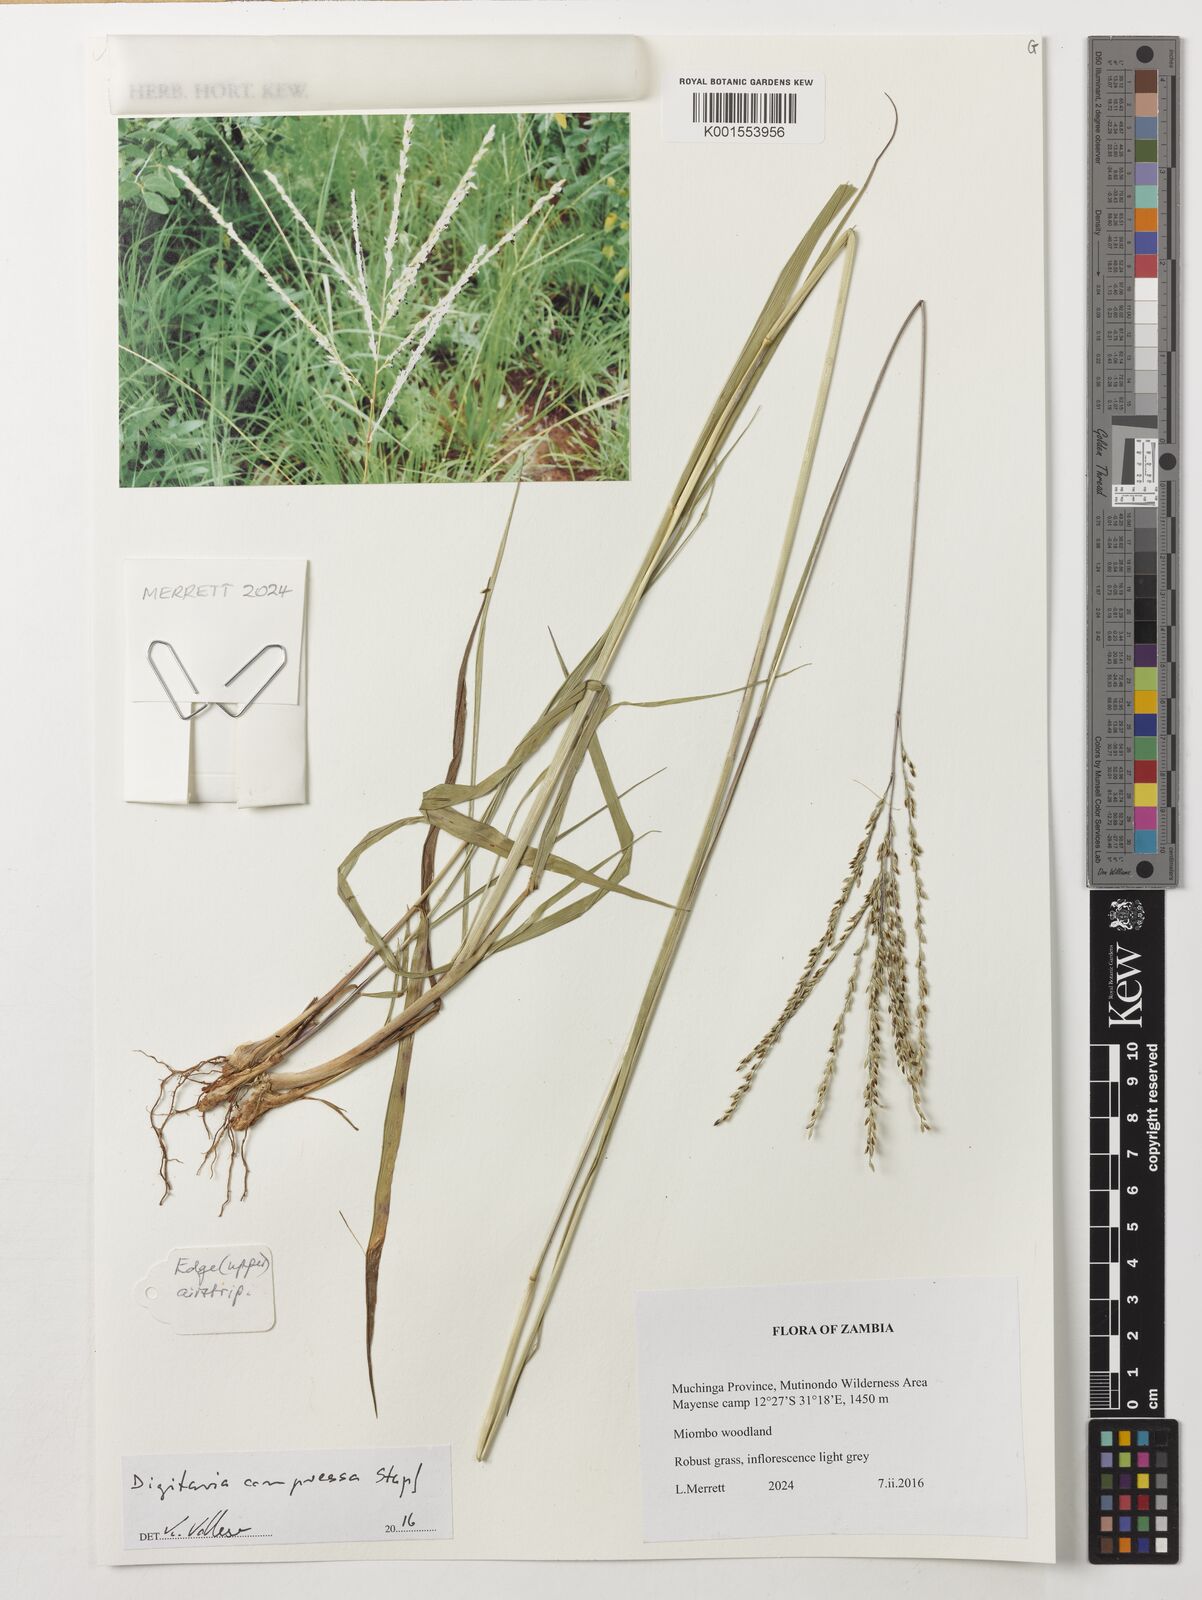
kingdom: Plantae
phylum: Tracheophyta
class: Liliopsida
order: Poales
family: Poaceae
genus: Digitaria
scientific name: Digitaria compressa
